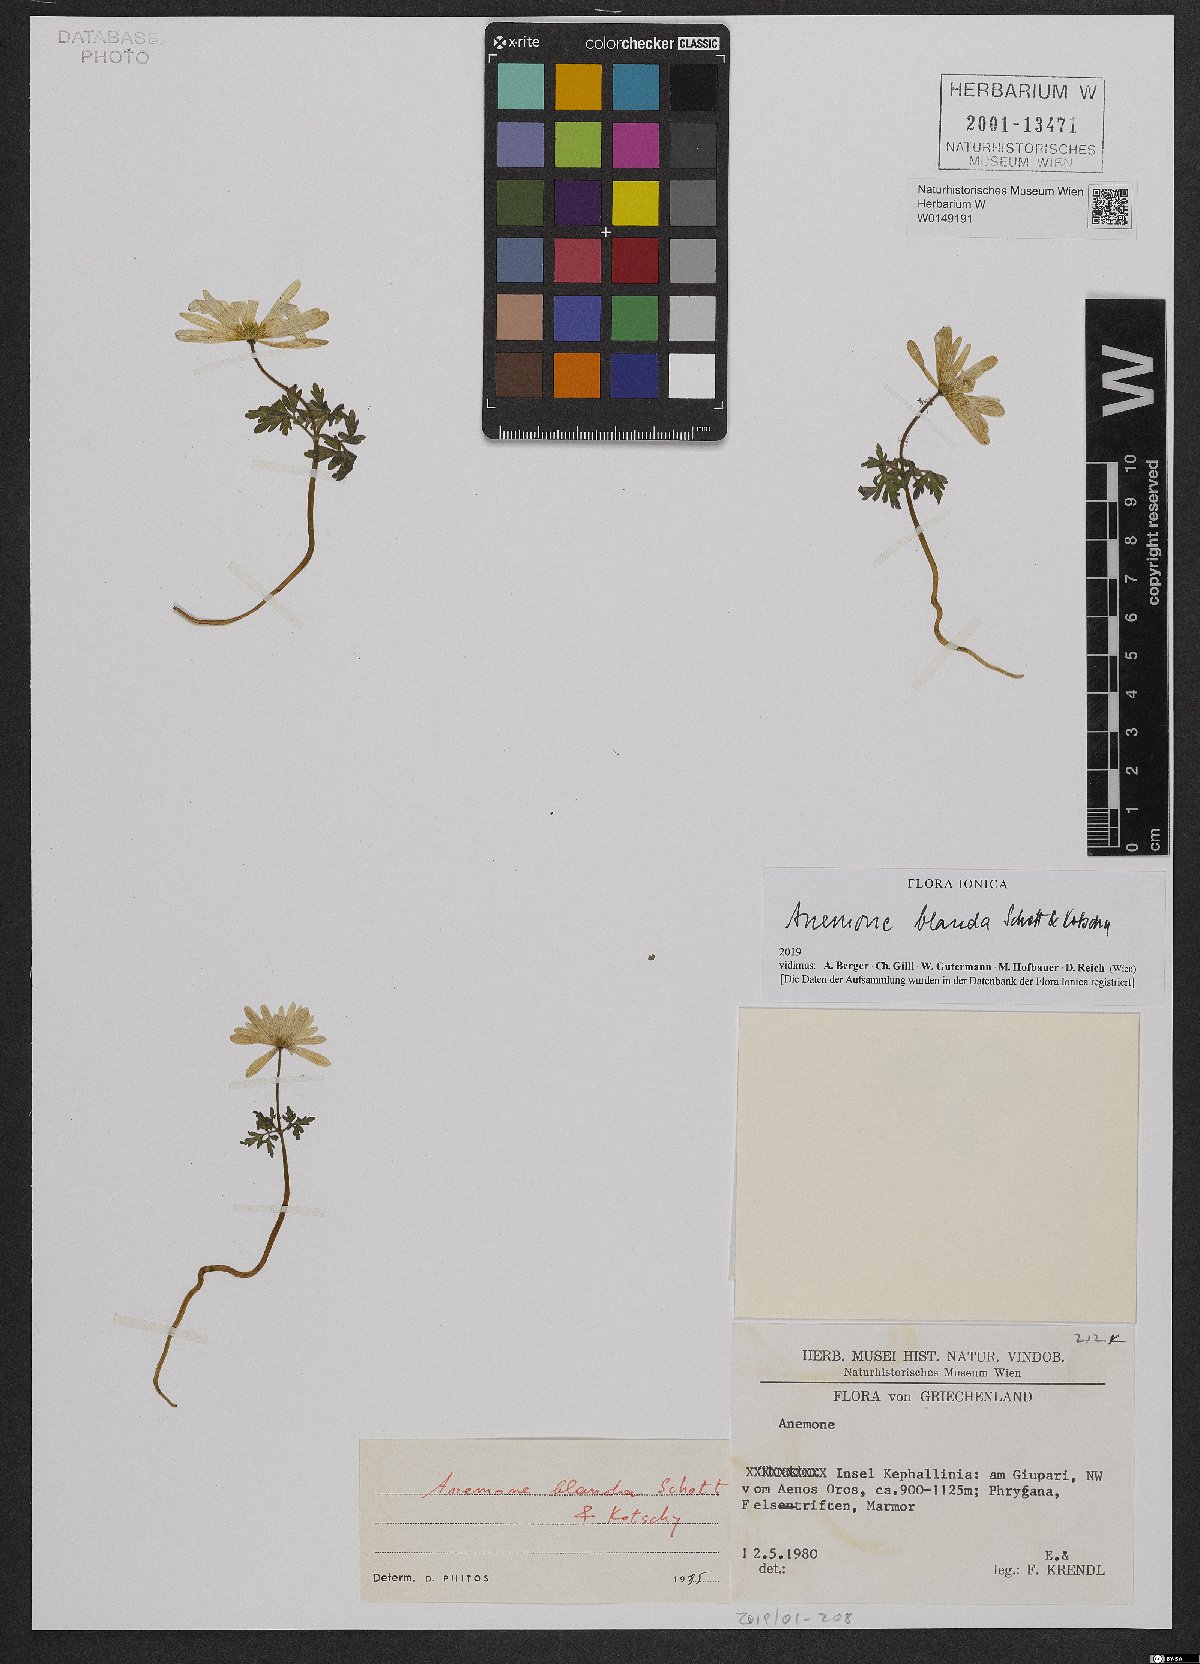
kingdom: Plantae
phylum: Tracheophyta
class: Magnoliopsida
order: Ranunculales
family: Ranunculaceae
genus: Anemone
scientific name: Anemone blanda
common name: Balkan anemone
